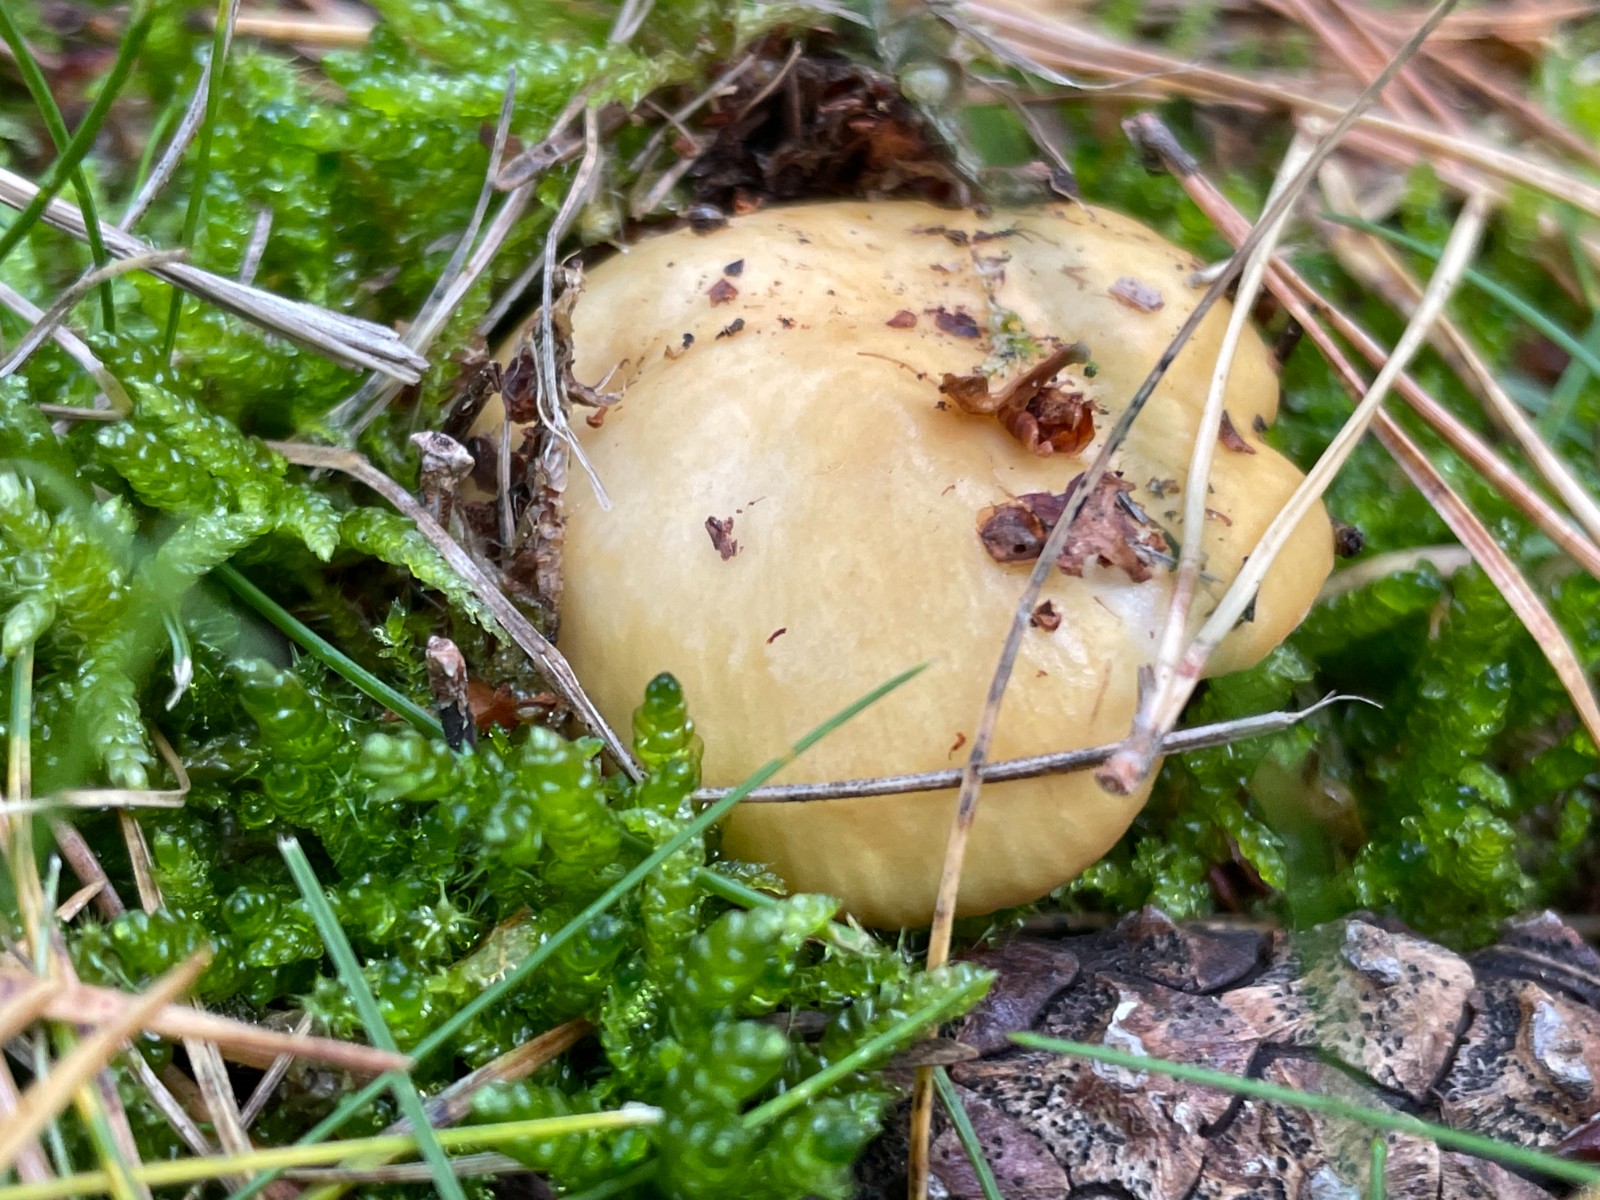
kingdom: Fungi
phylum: Basidiomycota
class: Agaricomycetes
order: Russulales
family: Russulaceae
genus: Russula
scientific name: Russula ochroleuca
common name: okkergul skørhat
